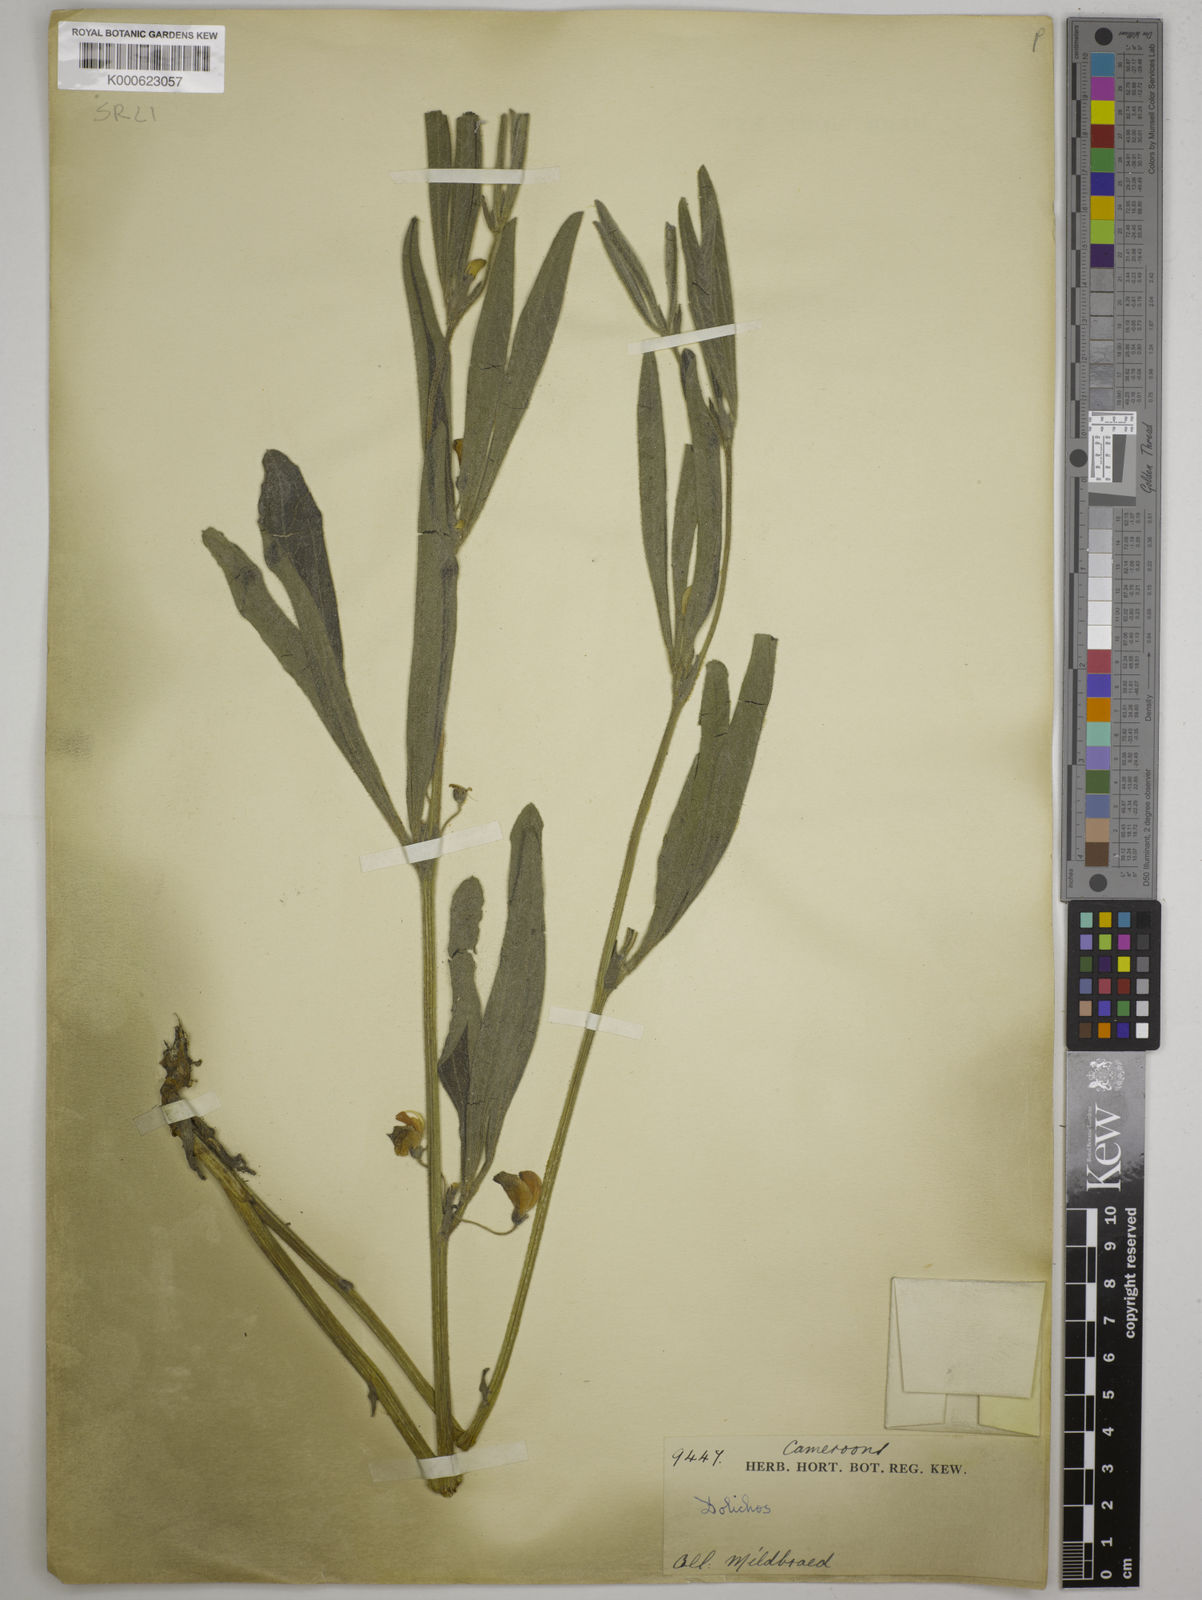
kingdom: Plantae
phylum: Tracheophyta
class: Magnoliopsida
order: Fabales
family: Fabaceae
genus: Dolichos
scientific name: Dolichos
